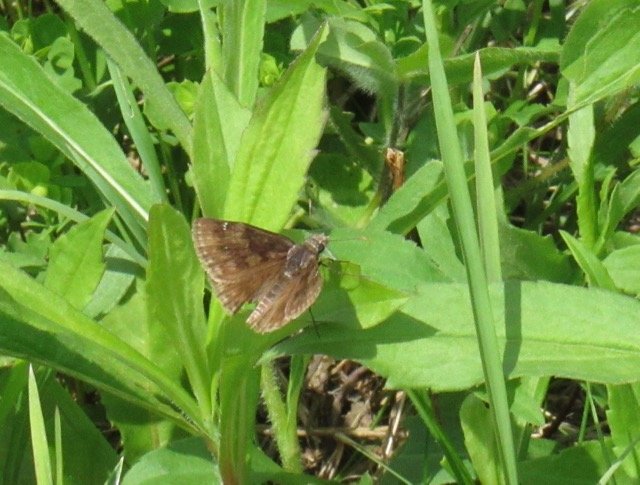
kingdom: Animalia
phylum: Arthropoda
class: Insecta
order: Lepidoptera
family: Hesperiidae
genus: Gesta
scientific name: Gesta
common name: Wild Indigo Duskywing
